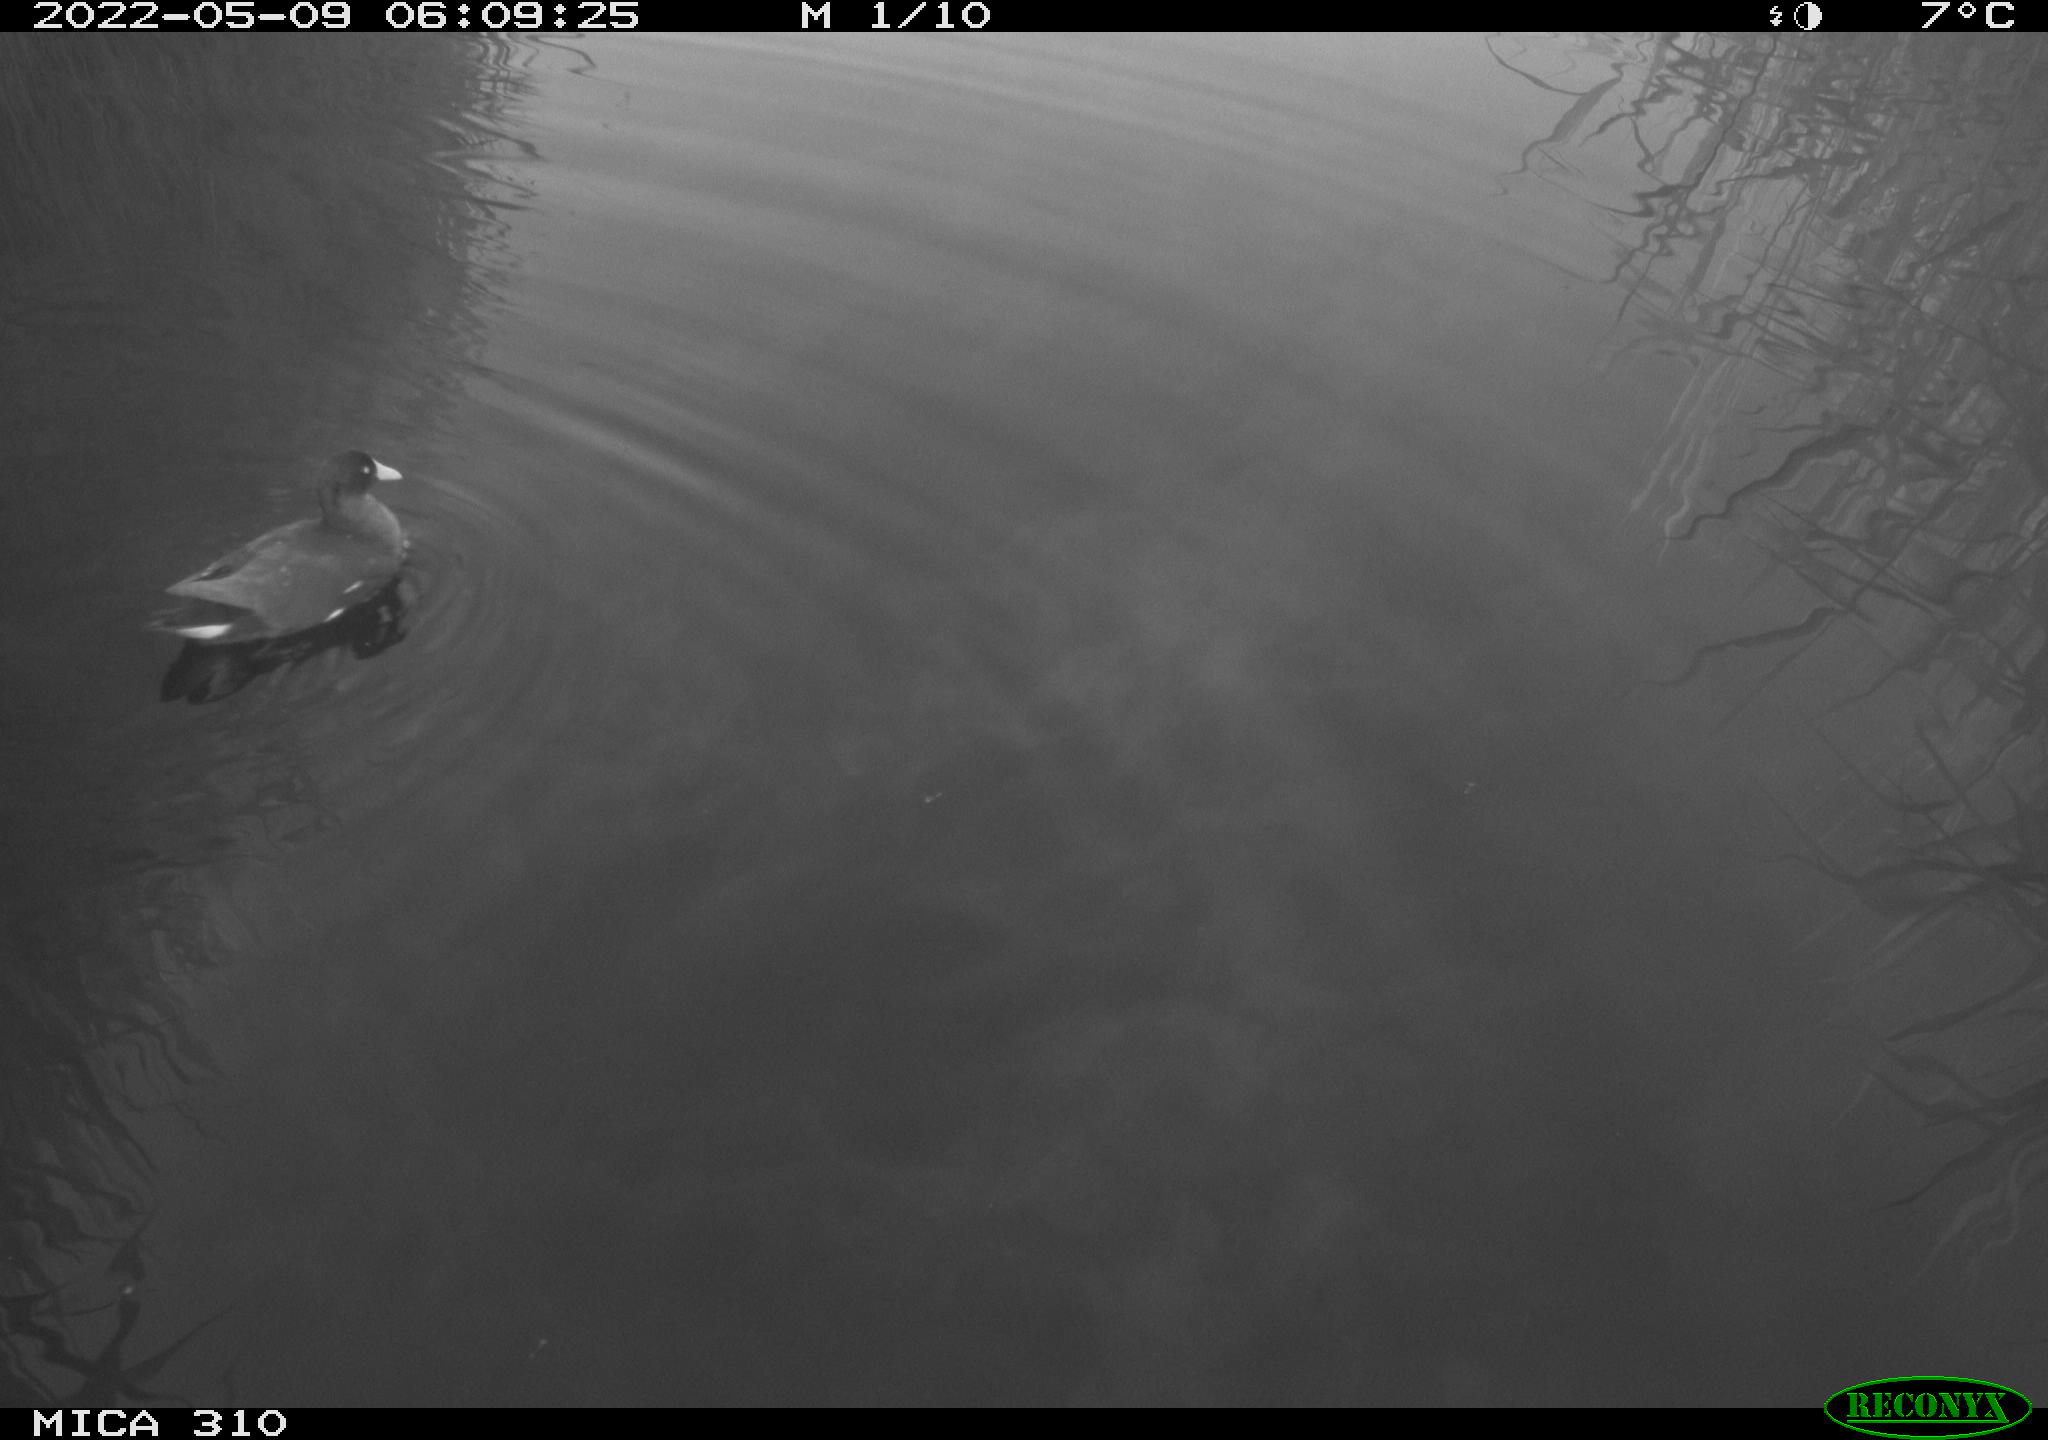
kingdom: Animalia
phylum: Chordata
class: Aves
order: Anseriformes
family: Anatidae
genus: Anas
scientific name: Anas platyrhynchos
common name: Mallard
